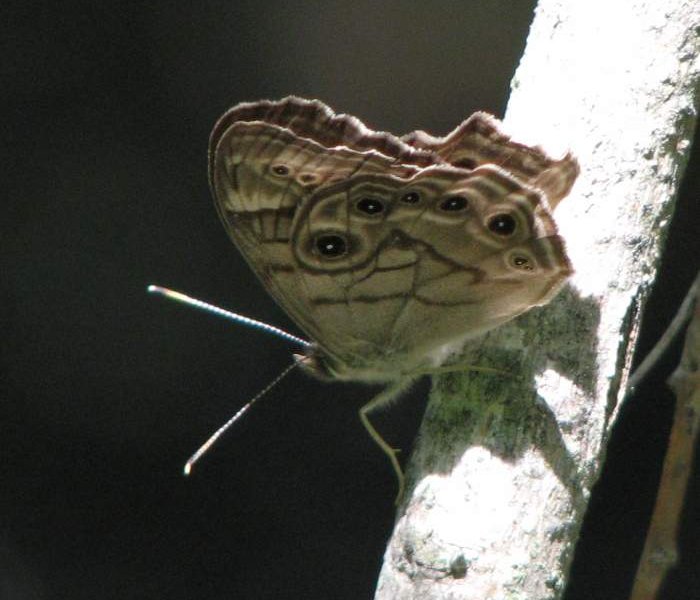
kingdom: Animalia
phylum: Arthropoda
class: Insecta
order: Lepidoptera
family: Nymphalidae
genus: Lethe
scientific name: Lethe anthedon
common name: Northern Pearly-Eye
